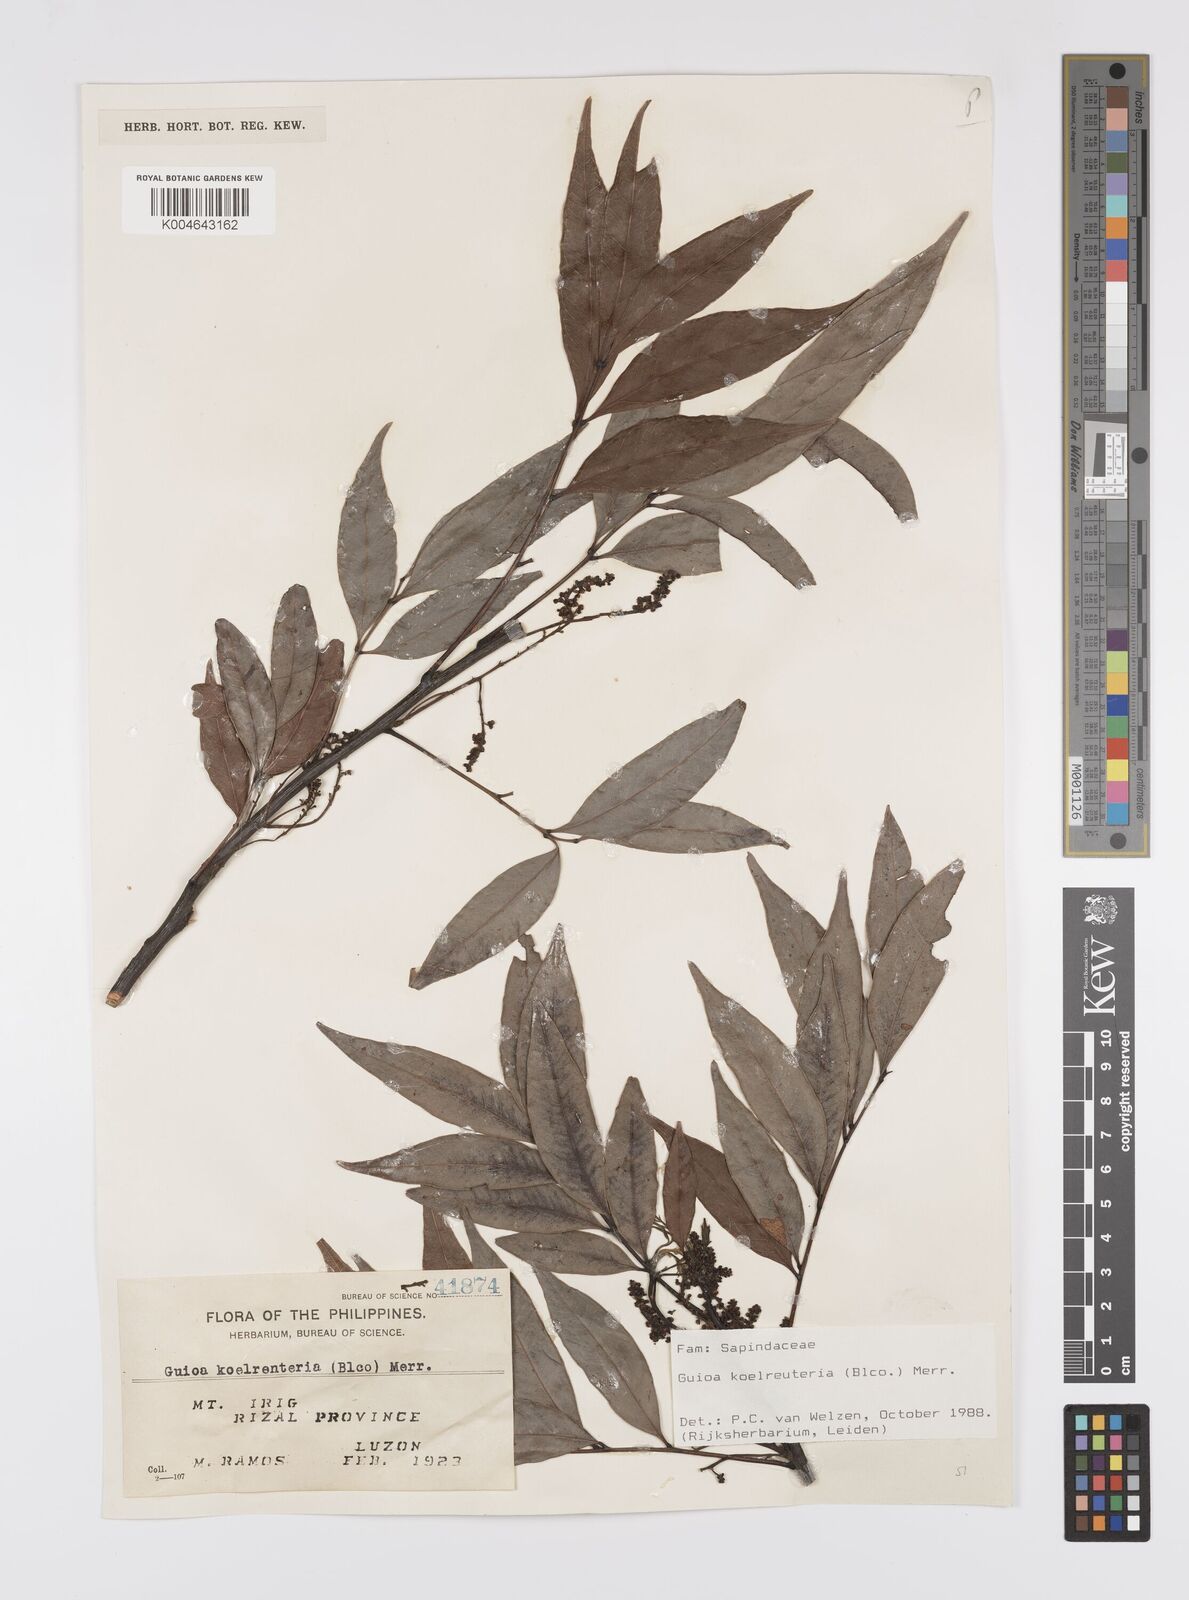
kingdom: Plantae
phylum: Tracheophyta
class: Magnoliopsida
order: Sapindales
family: Sapindaceae
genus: Guioa
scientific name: Guioa koelreuteria
